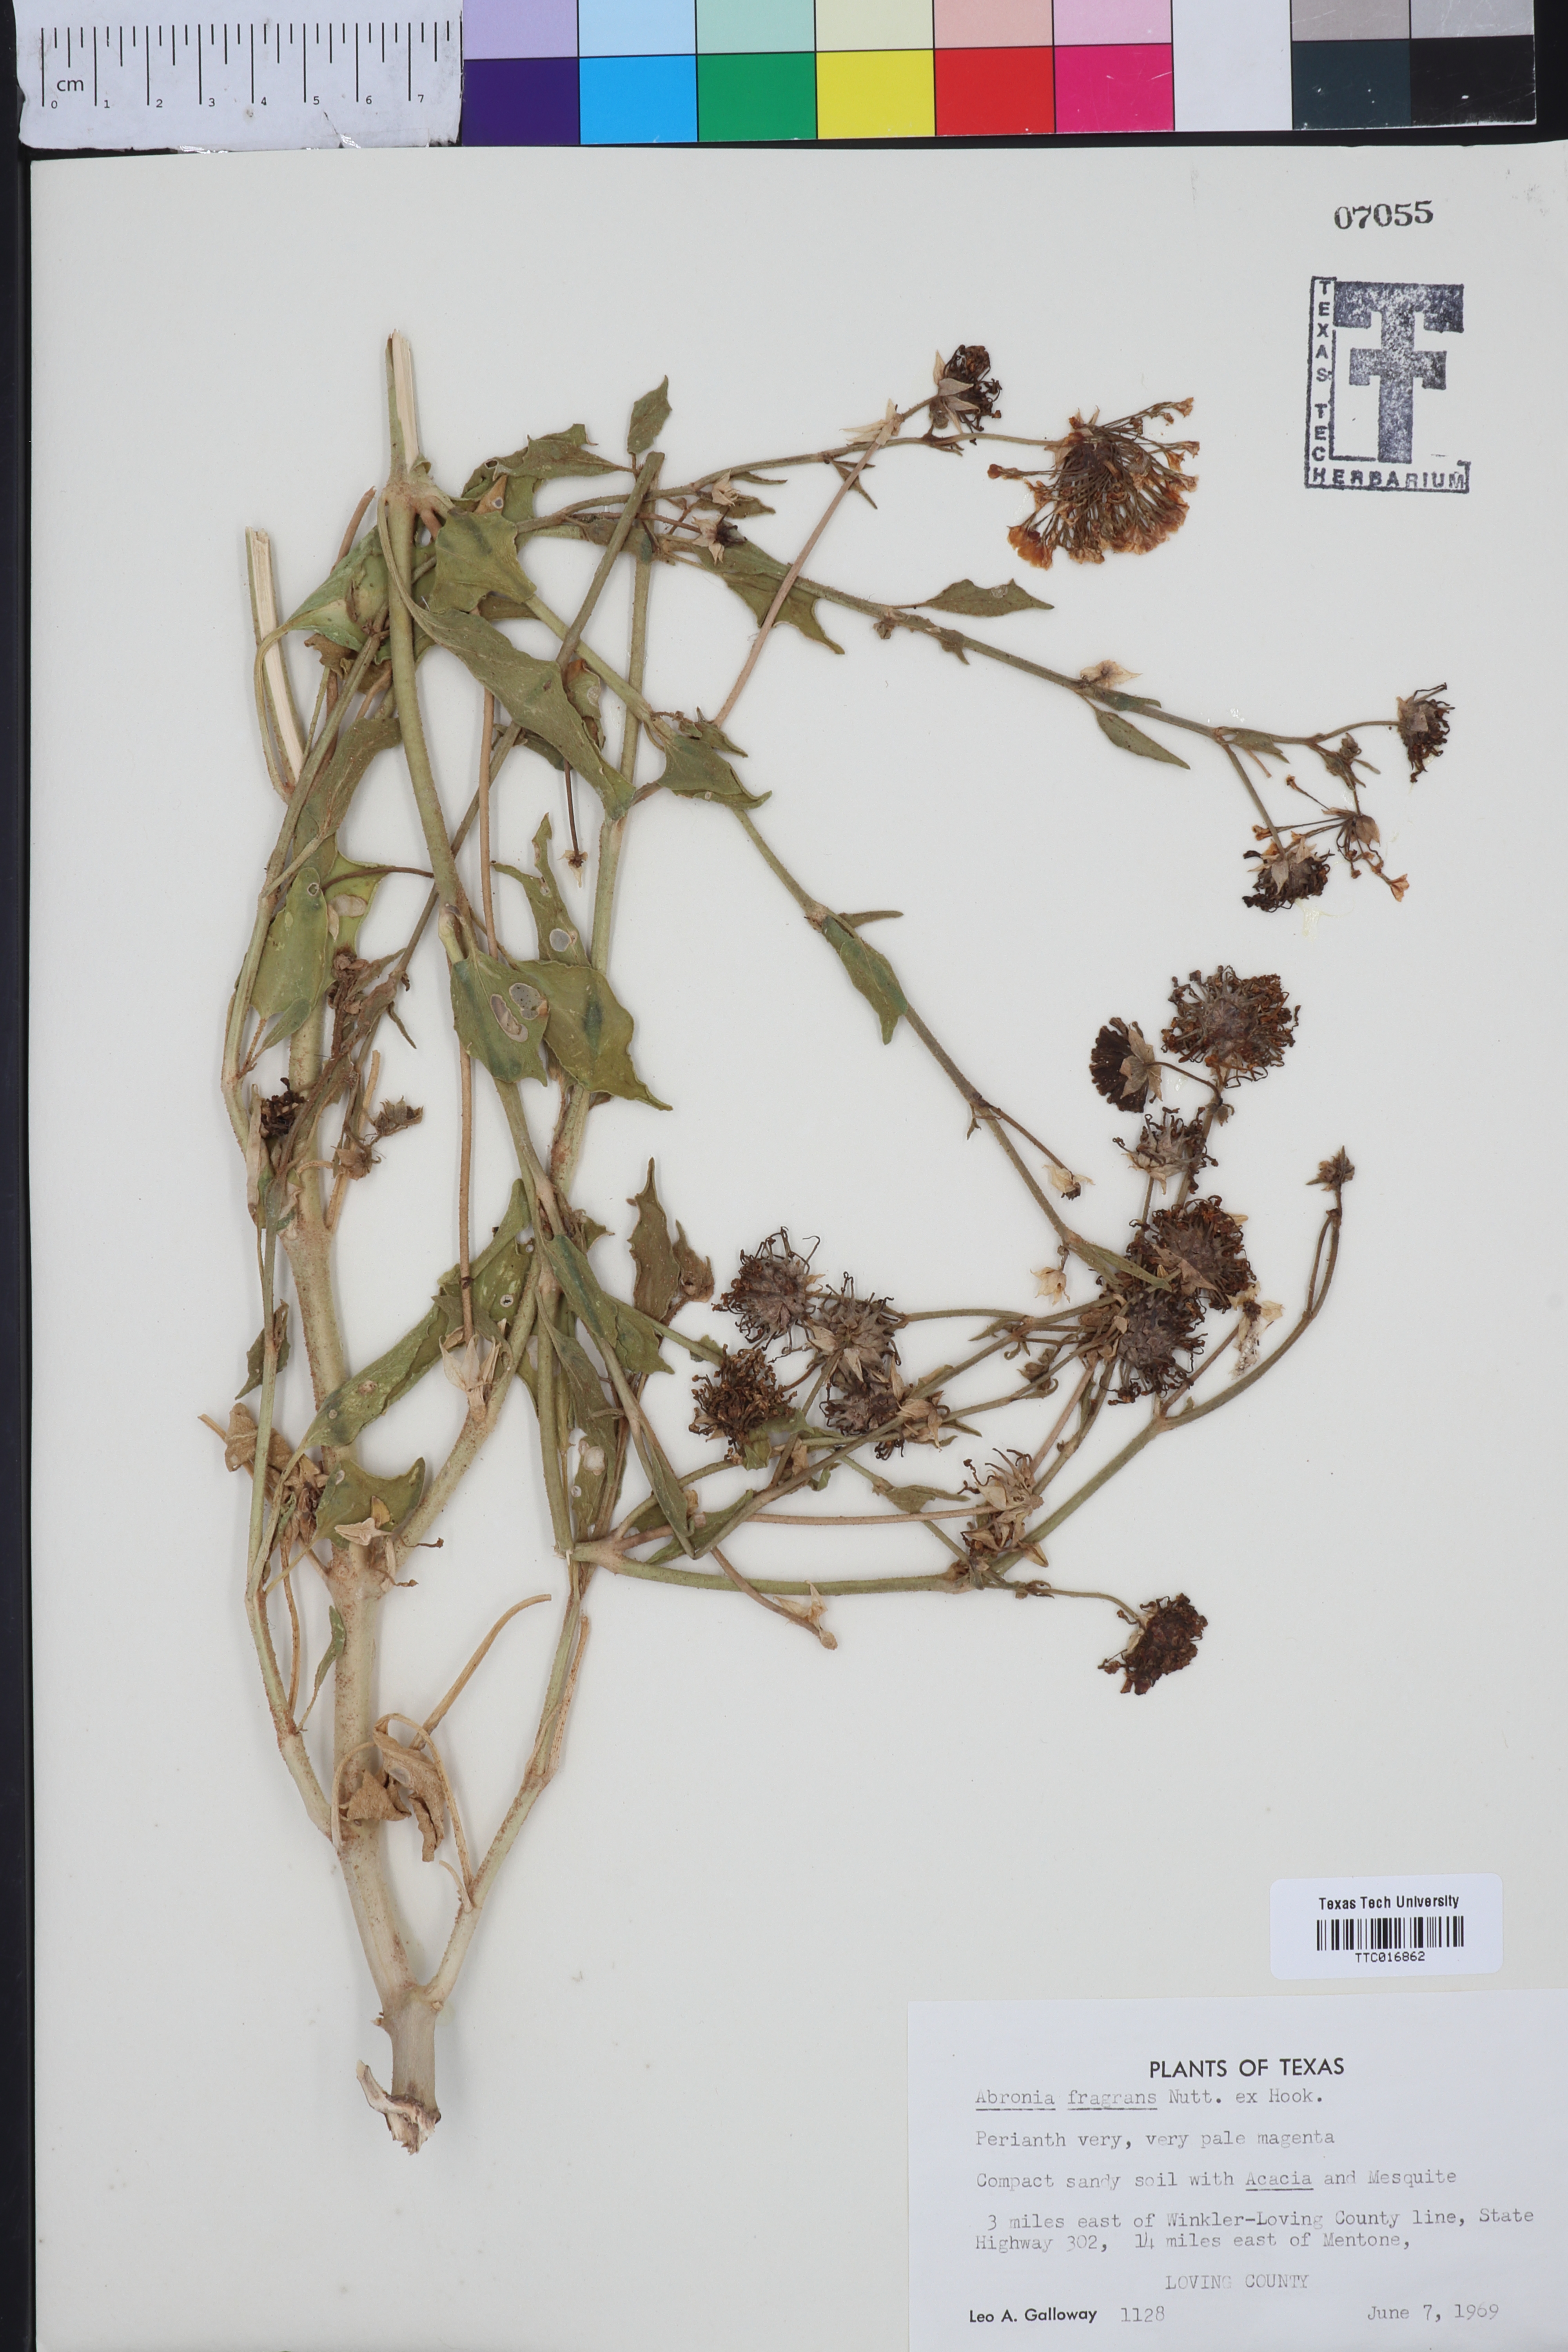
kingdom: Plantae
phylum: Tracheophyta
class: Magnoliopsida
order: Caryophyllales
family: Nyctaginaceae
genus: Abronia
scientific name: Abronia fragrans
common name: Fragrant sand-verbena
